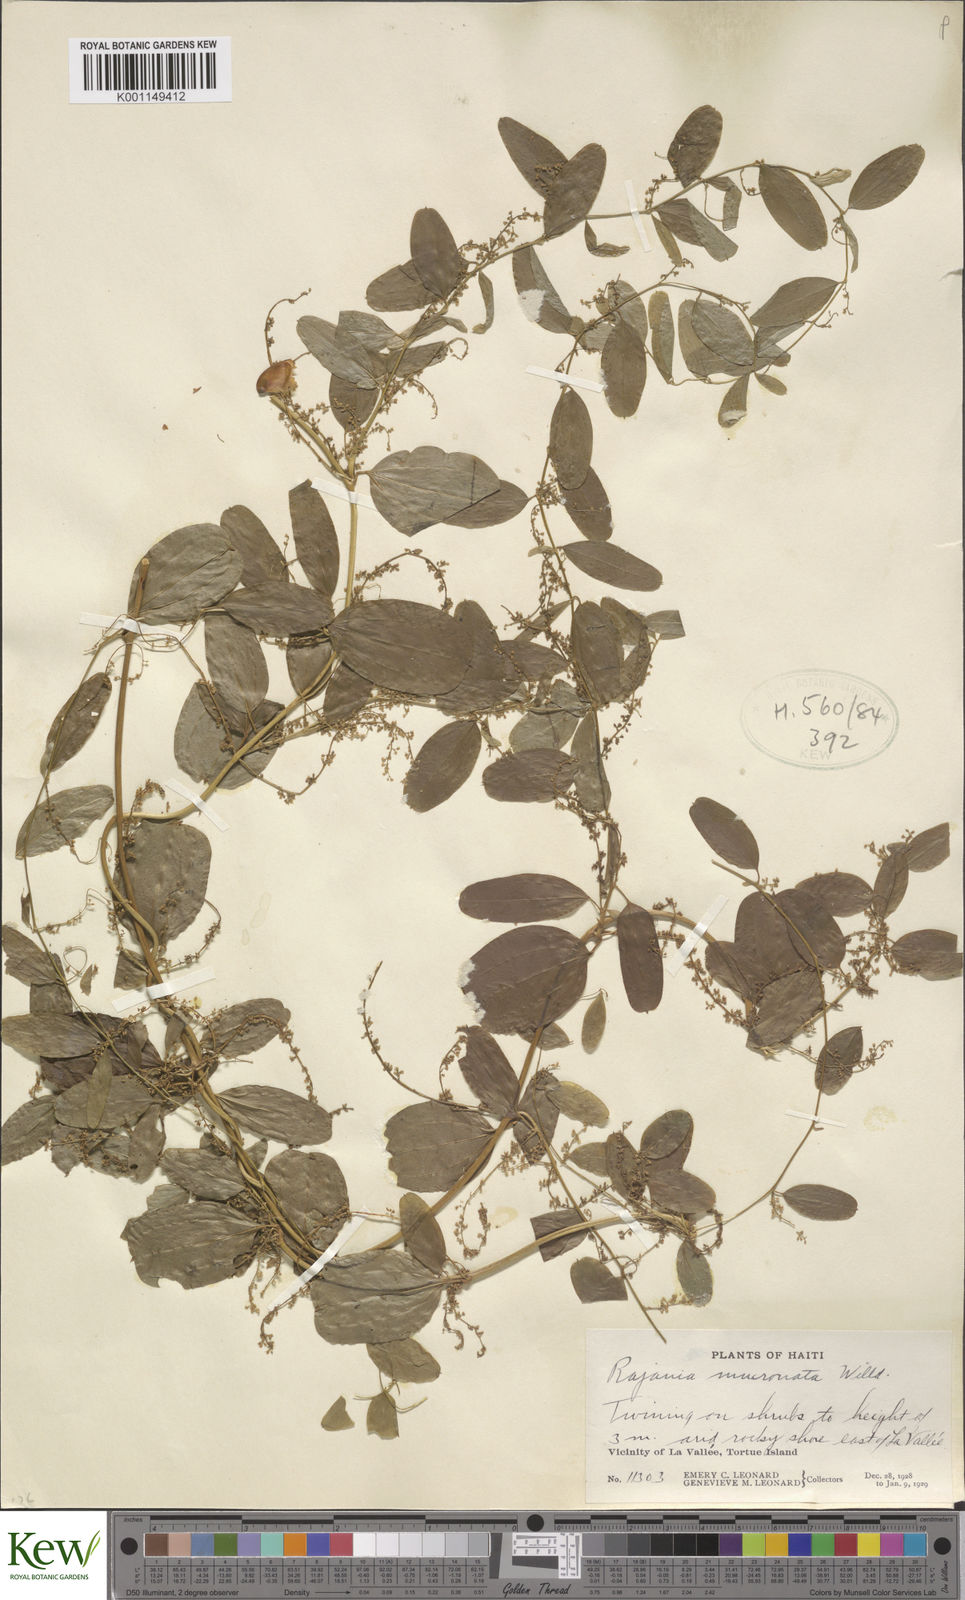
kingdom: Plantae
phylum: Tracheophyta
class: Liliopsida
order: Dioscoreales
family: Dioscoreaceae
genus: Dioscorea
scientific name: Dioscorea
